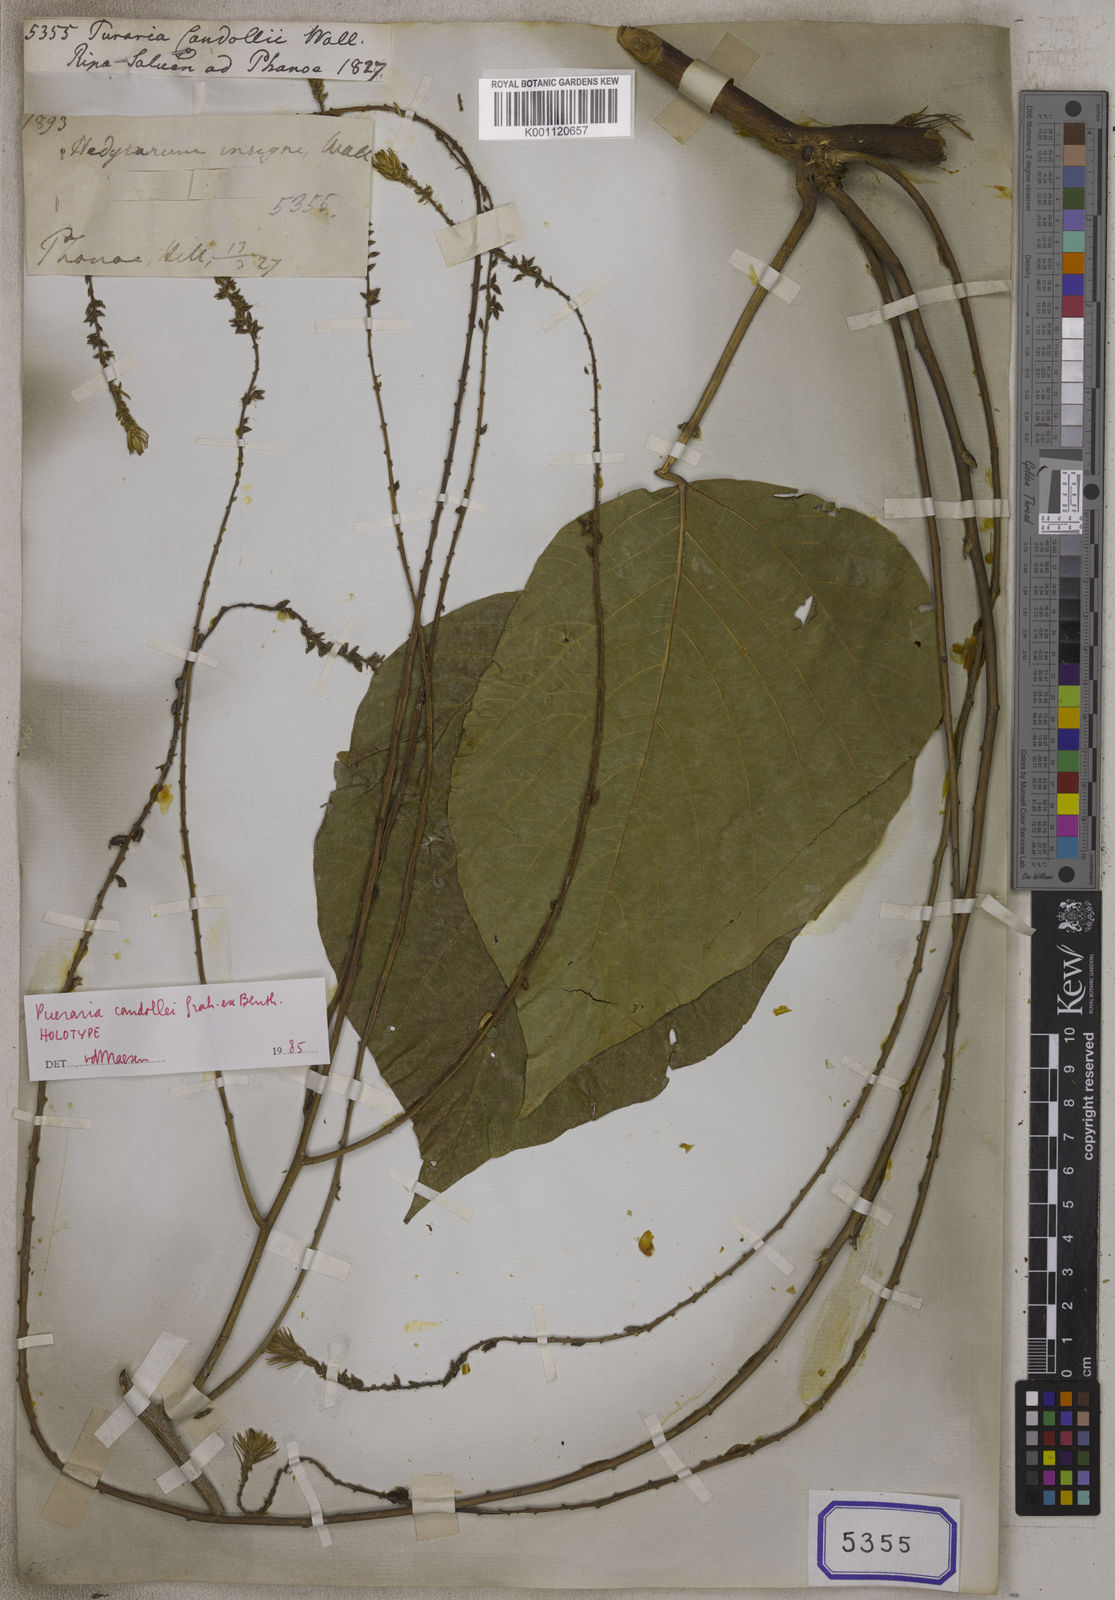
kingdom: Plantae
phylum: Tracheophyta
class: Magnoliopsida
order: Fabales
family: Fabaceae
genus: Pueraria
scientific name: Pueraria
